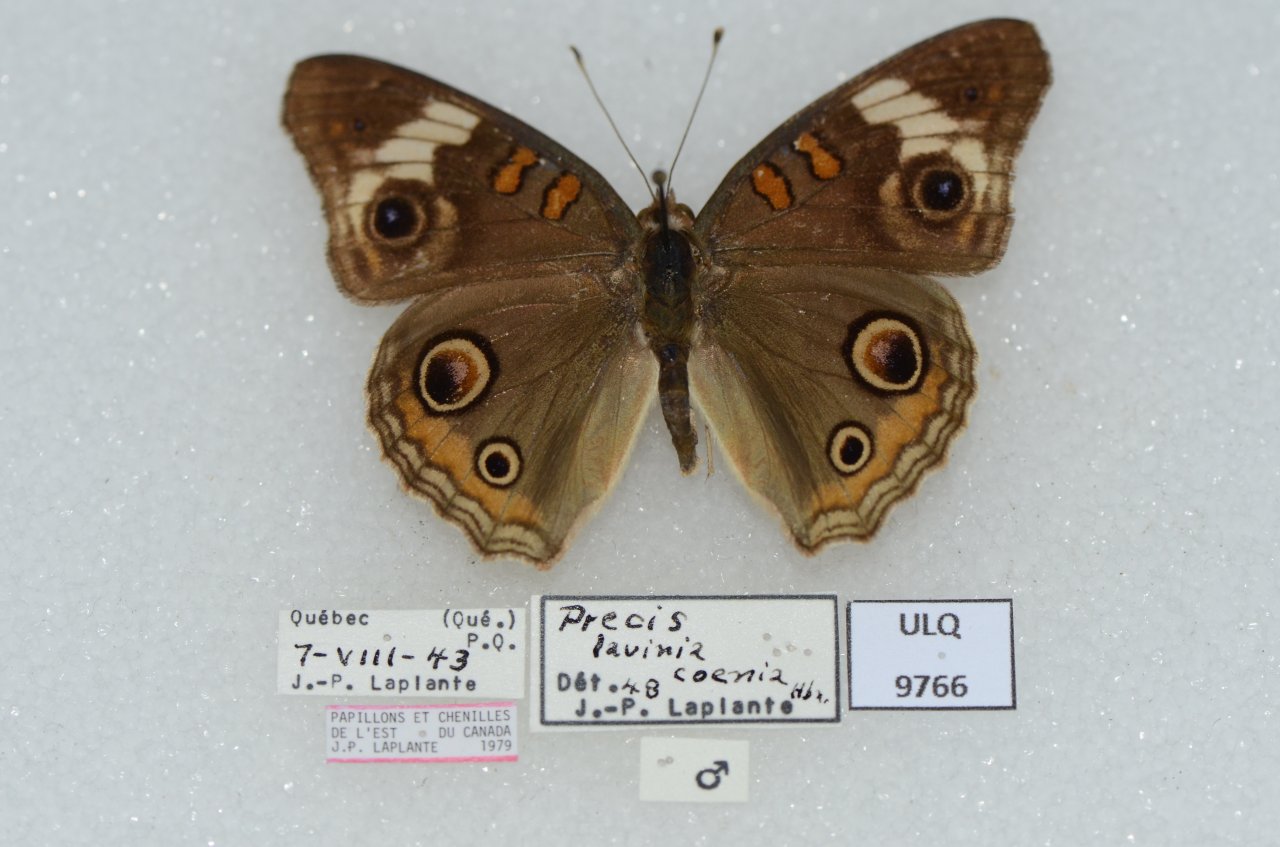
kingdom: Animalia
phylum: Arthropoda
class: Insecta
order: Lepidoptera
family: Nymphalidae
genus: Junonia
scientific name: Junonia coenia
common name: Common Buckeye
